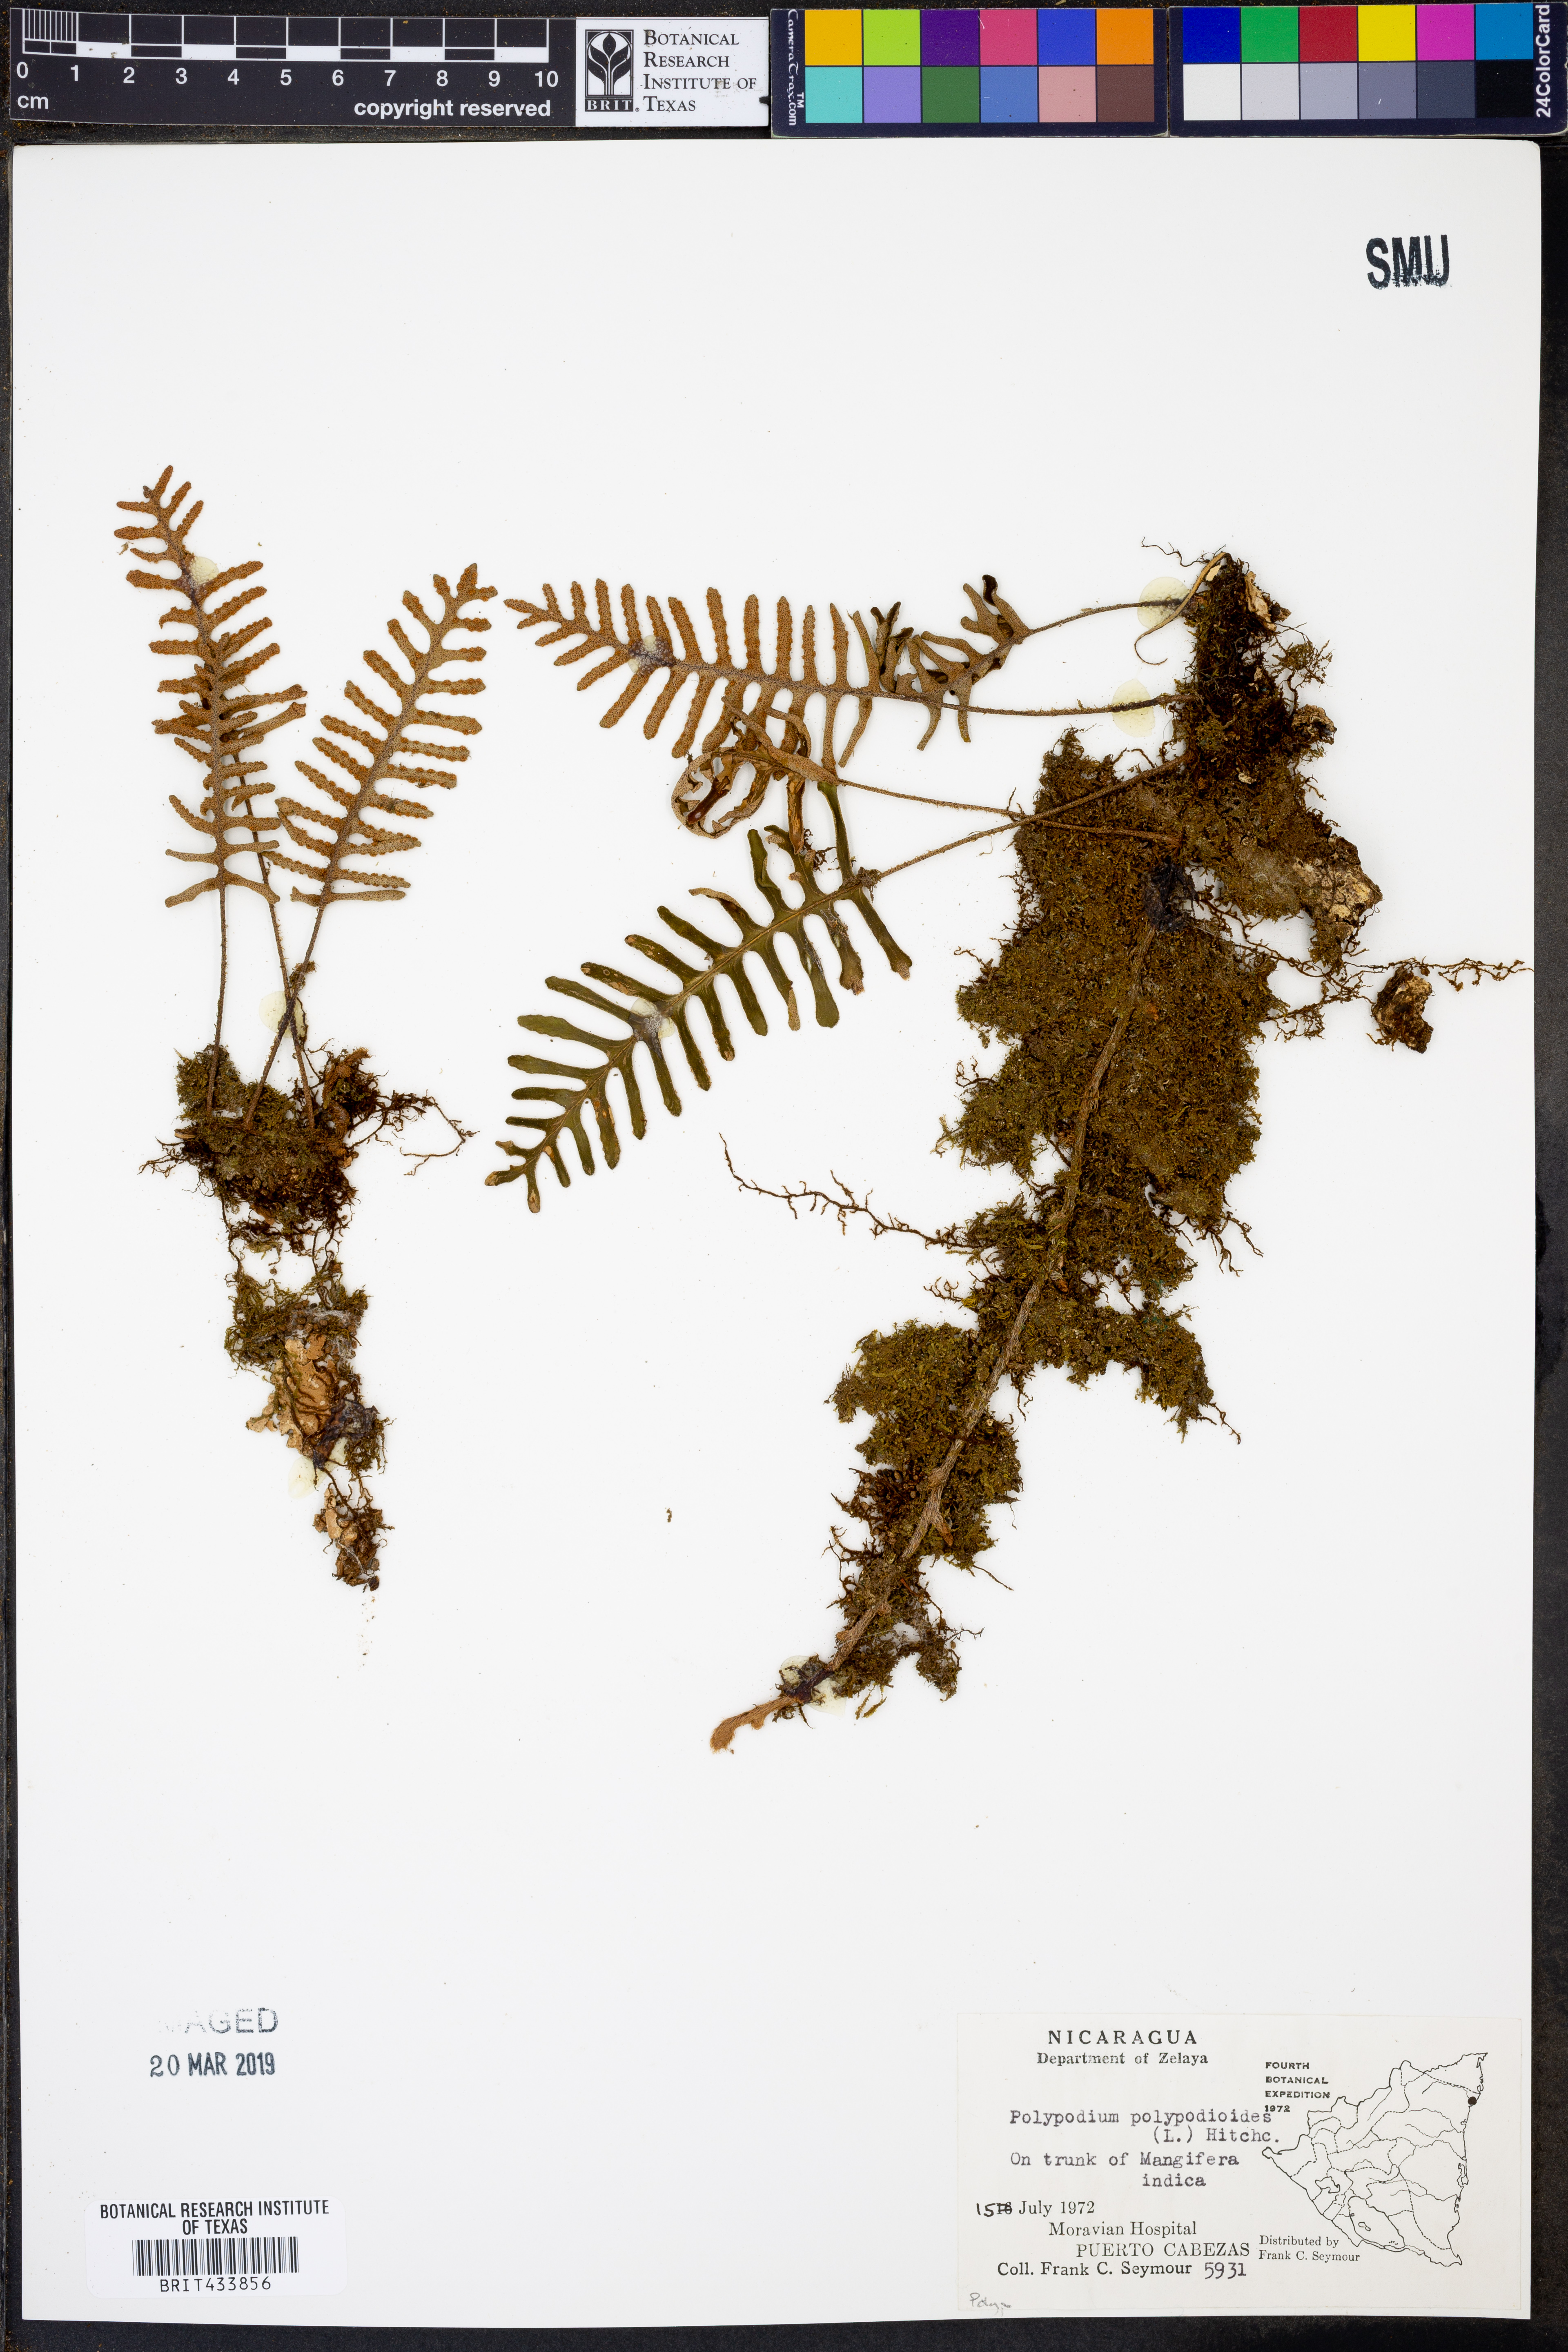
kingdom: Plantae
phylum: Tracheophyta
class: Polypodiopsida
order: Polypodiales
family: Polypodiaceae
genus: Pleopeltis
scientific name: Pleopeltis polypodioides
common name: Resurrection fern
